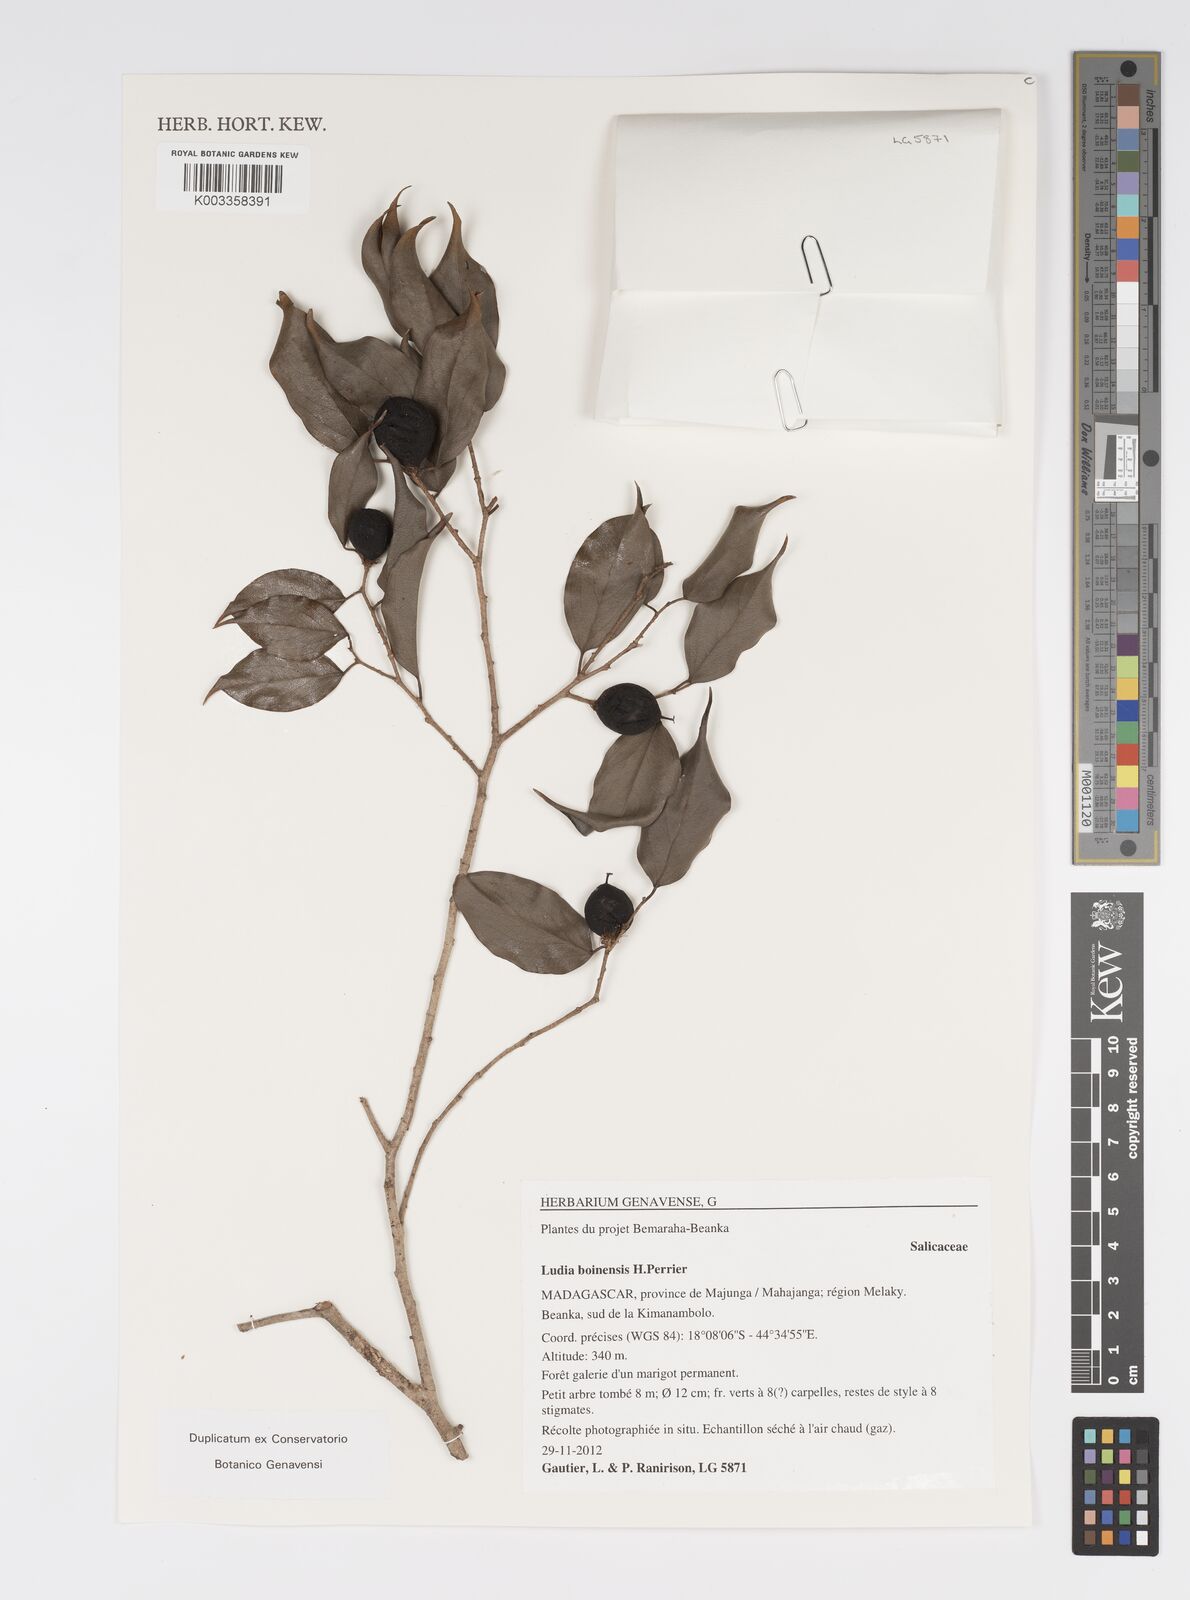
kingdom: Plantae
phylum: Tracheophyta
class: Magnoliopsida
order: Malpighiales
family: Salicaceae
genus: Ludia
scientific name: Ludia boinensis
